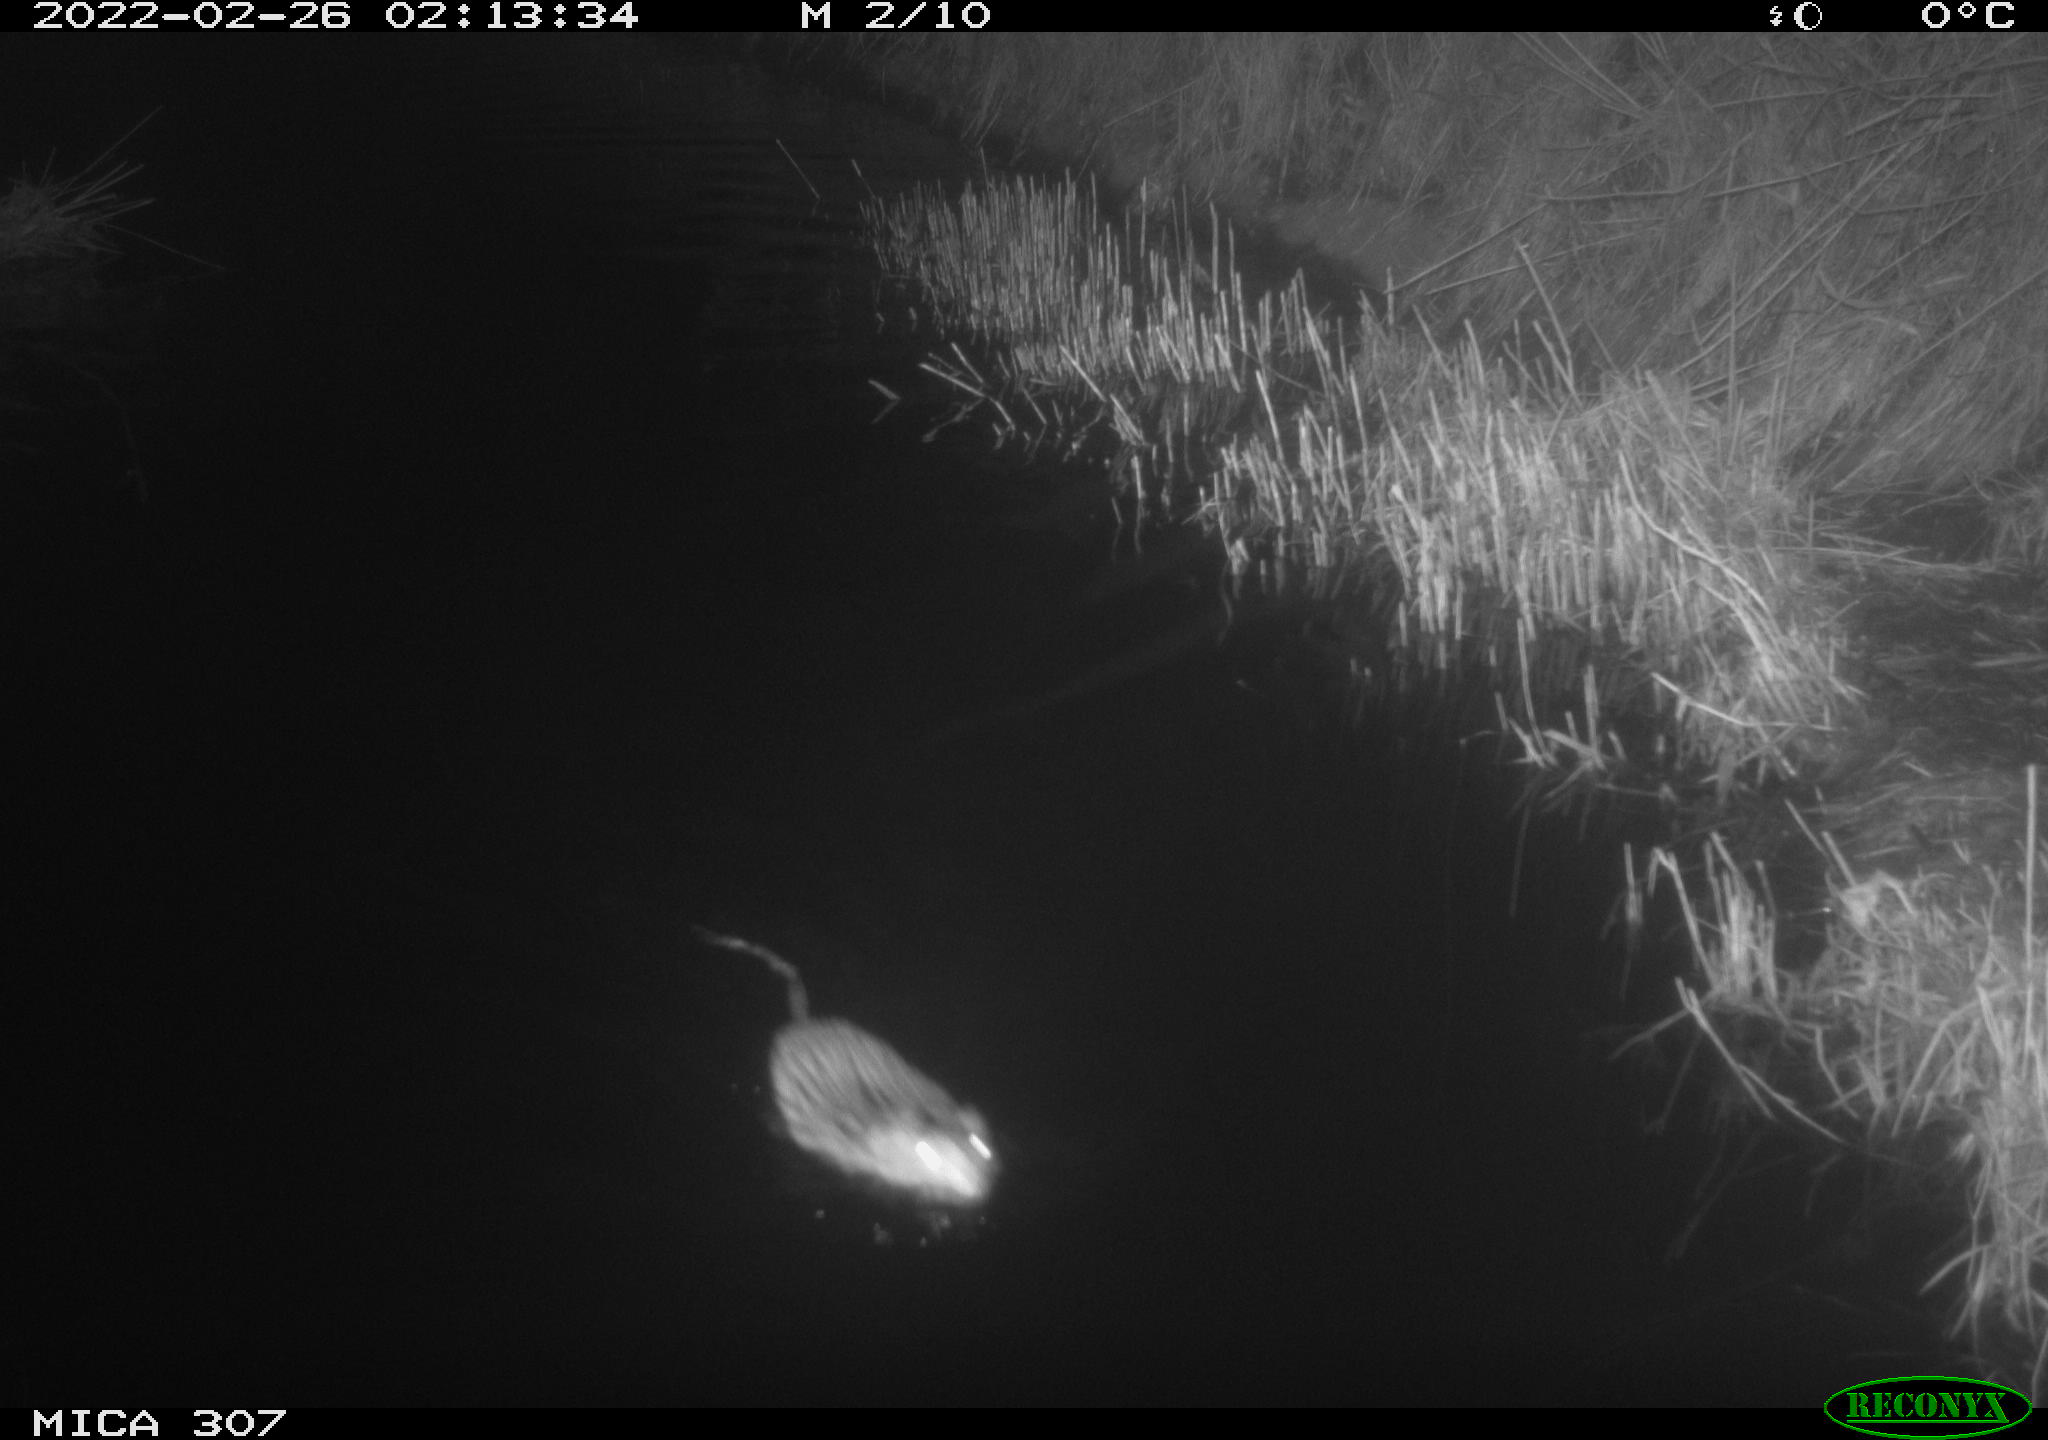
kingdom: Animalia
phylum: Chordata
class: Mammalia
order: Rodentia
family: Cricetidae
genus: Ondatra
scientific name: Ondatra zibethicus
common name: Muskrat
